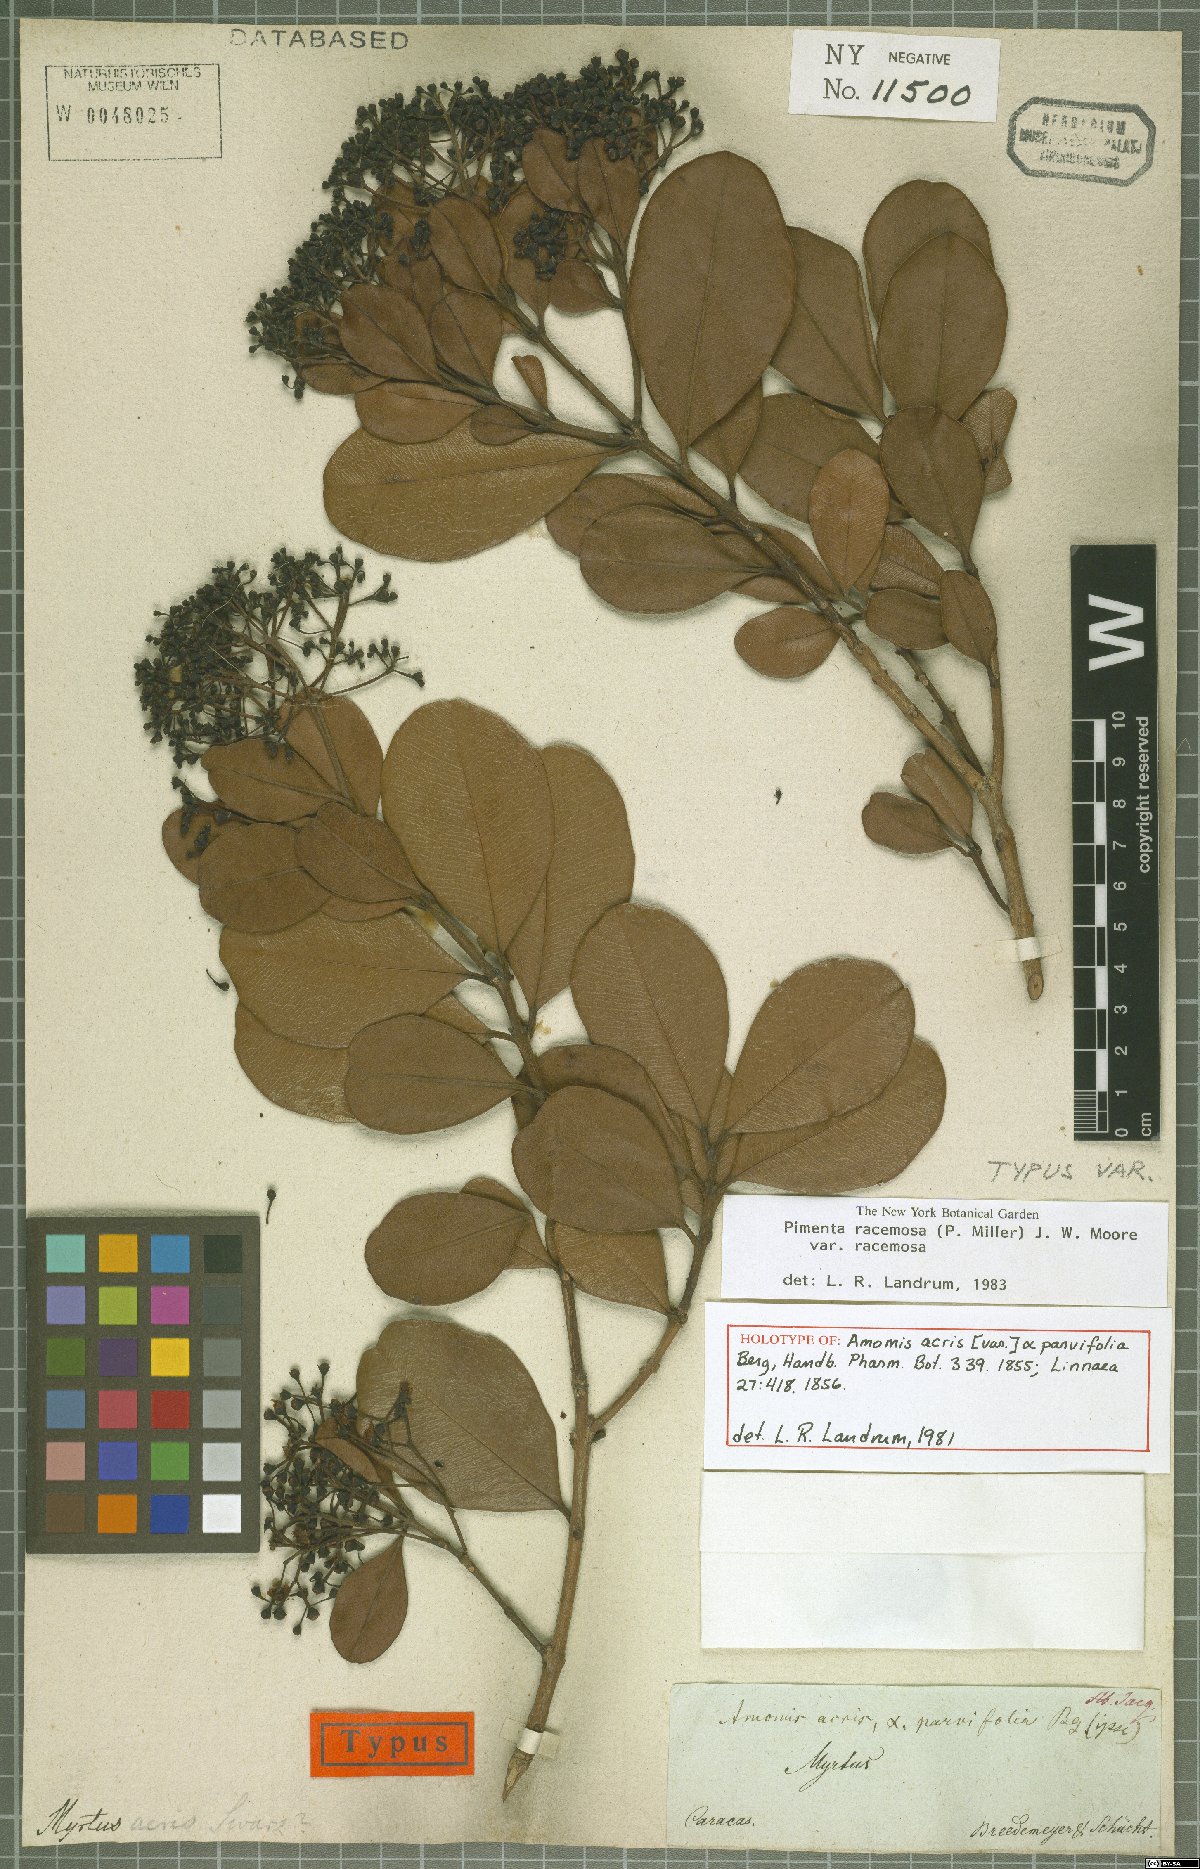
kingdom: Plantae
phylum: Tracheophyta
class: Magnoliopsida
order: Myrtales
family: Myrtaceae
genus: Pimenta
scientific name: Pimenta racemosa
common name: Bay rum tree
